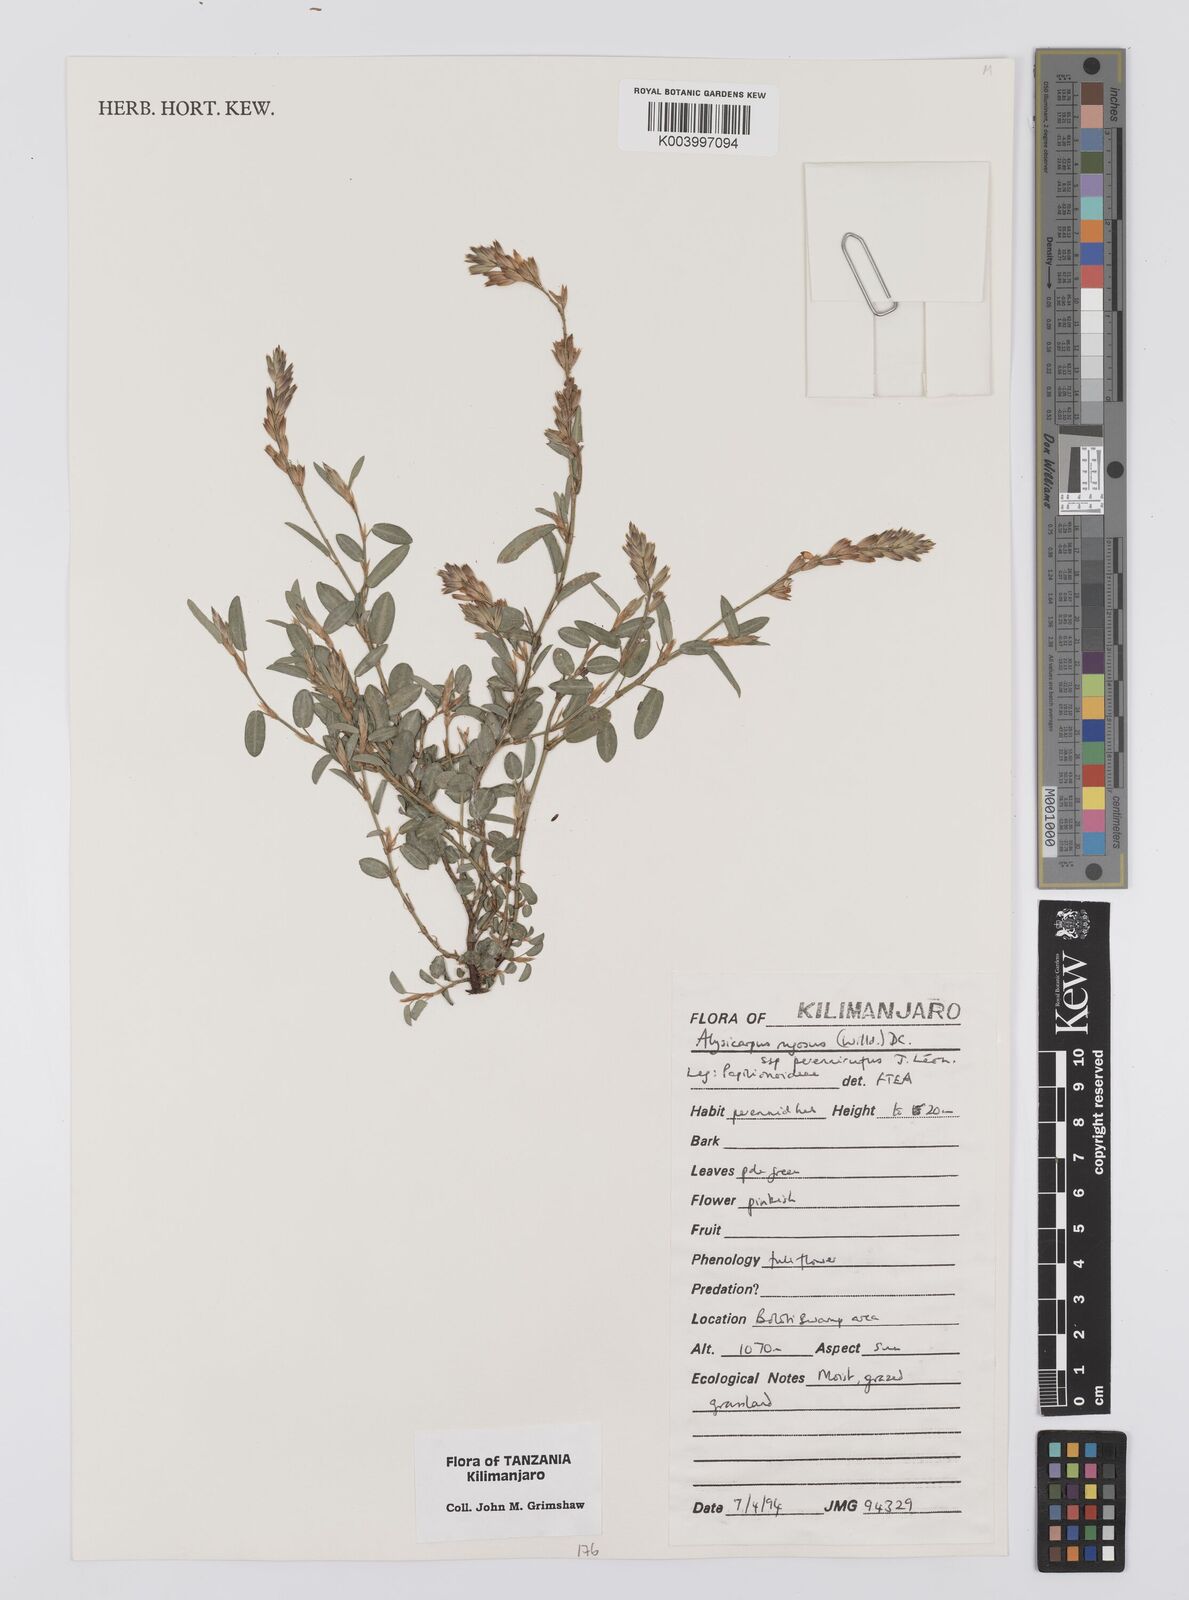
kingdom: Plantae
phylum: Tracheophyta
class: Magnoliopsida
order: Fabales
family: Fabaceae
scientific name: Fabaceae
